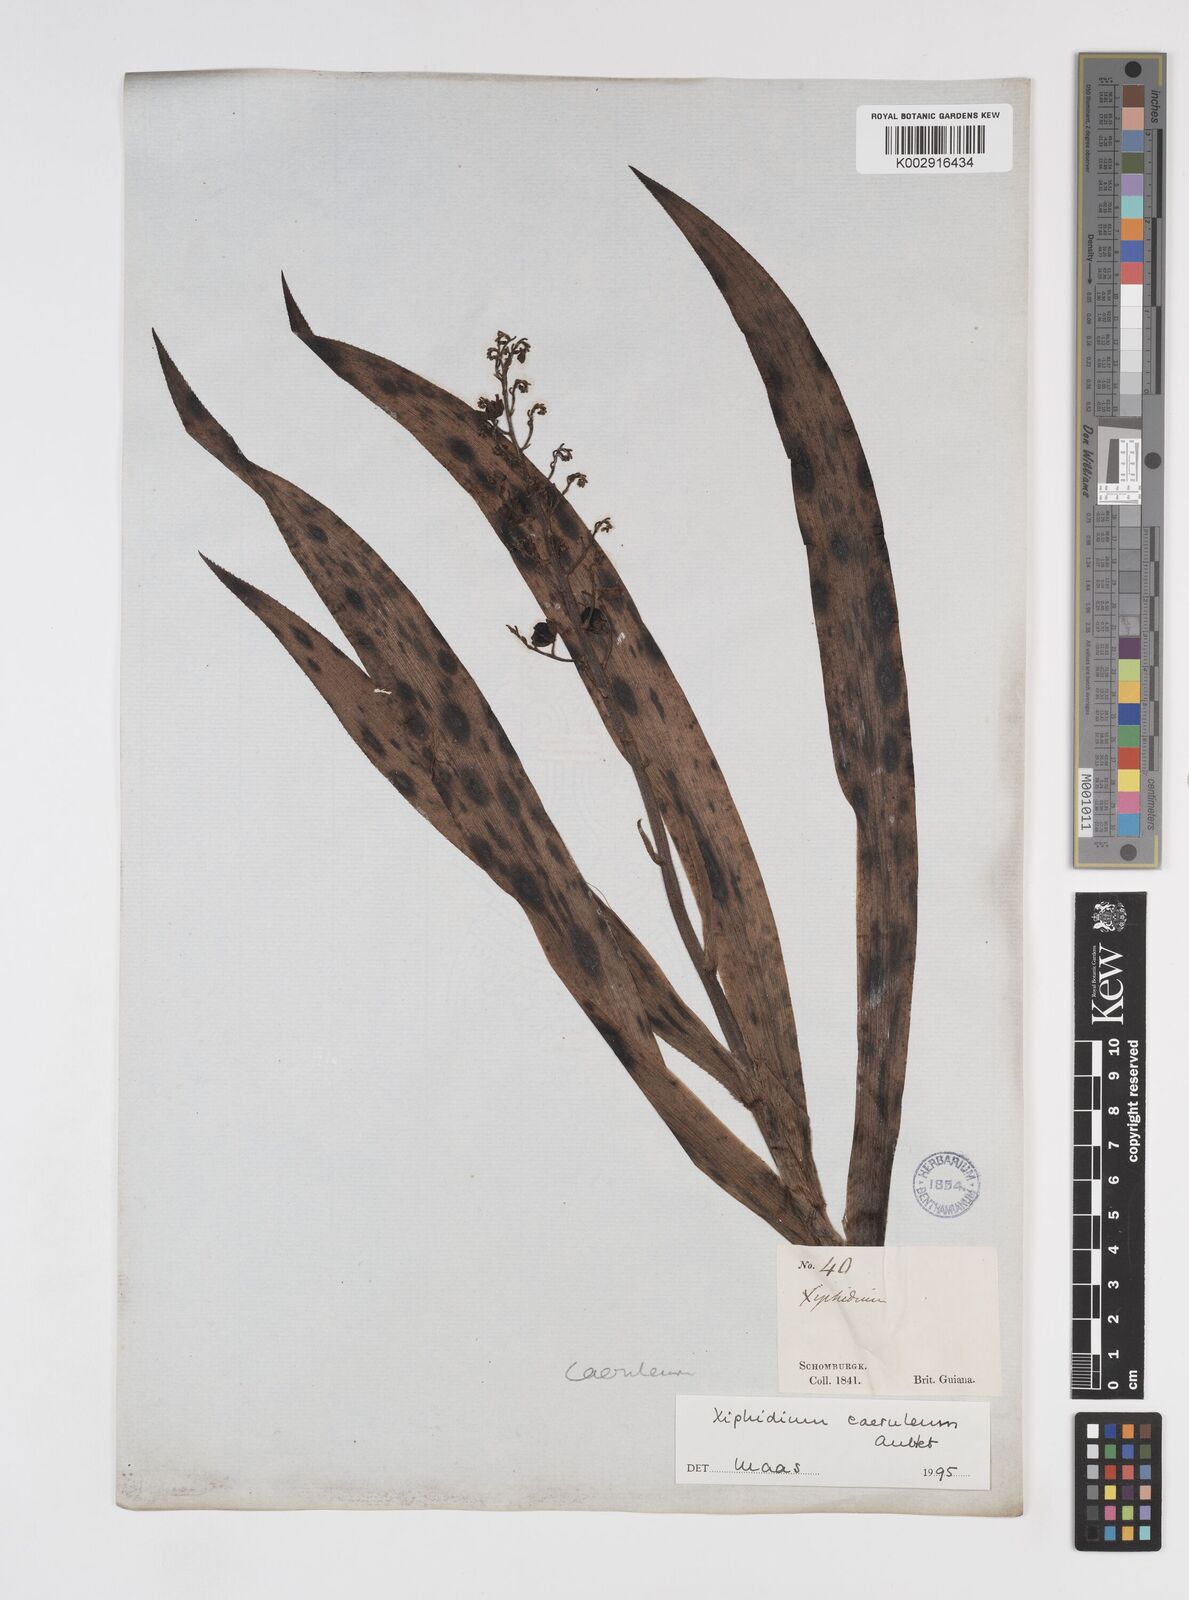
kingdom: Plantae
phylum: Tracheophyta
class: Liliopsida
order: Commelinales
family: Haemodoraceae
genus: Xiphidium
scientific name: Xiphidium caeruleum
